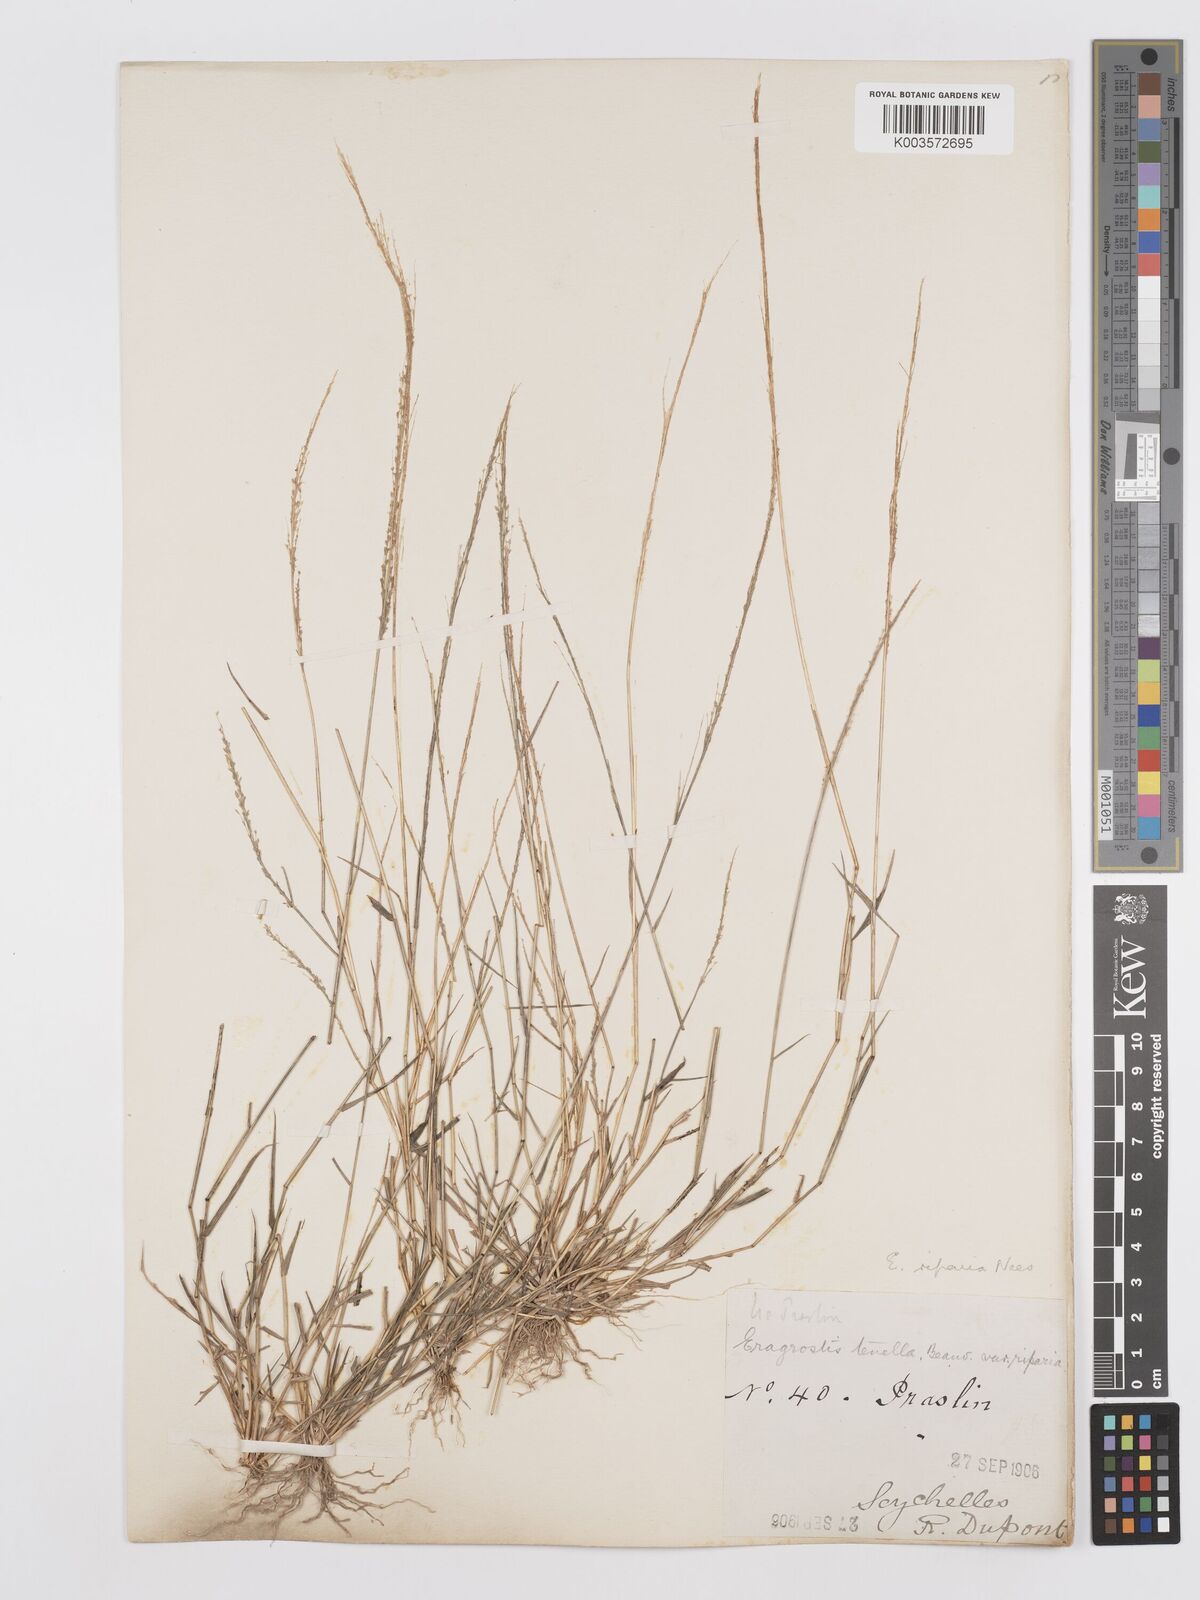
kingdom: Plantae
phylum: Tracheophyta
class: Liliopsida
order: Poales
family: Poaceae
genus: Eragrostis
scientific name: Eragrostis tenella
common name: Japanese lovegrass
